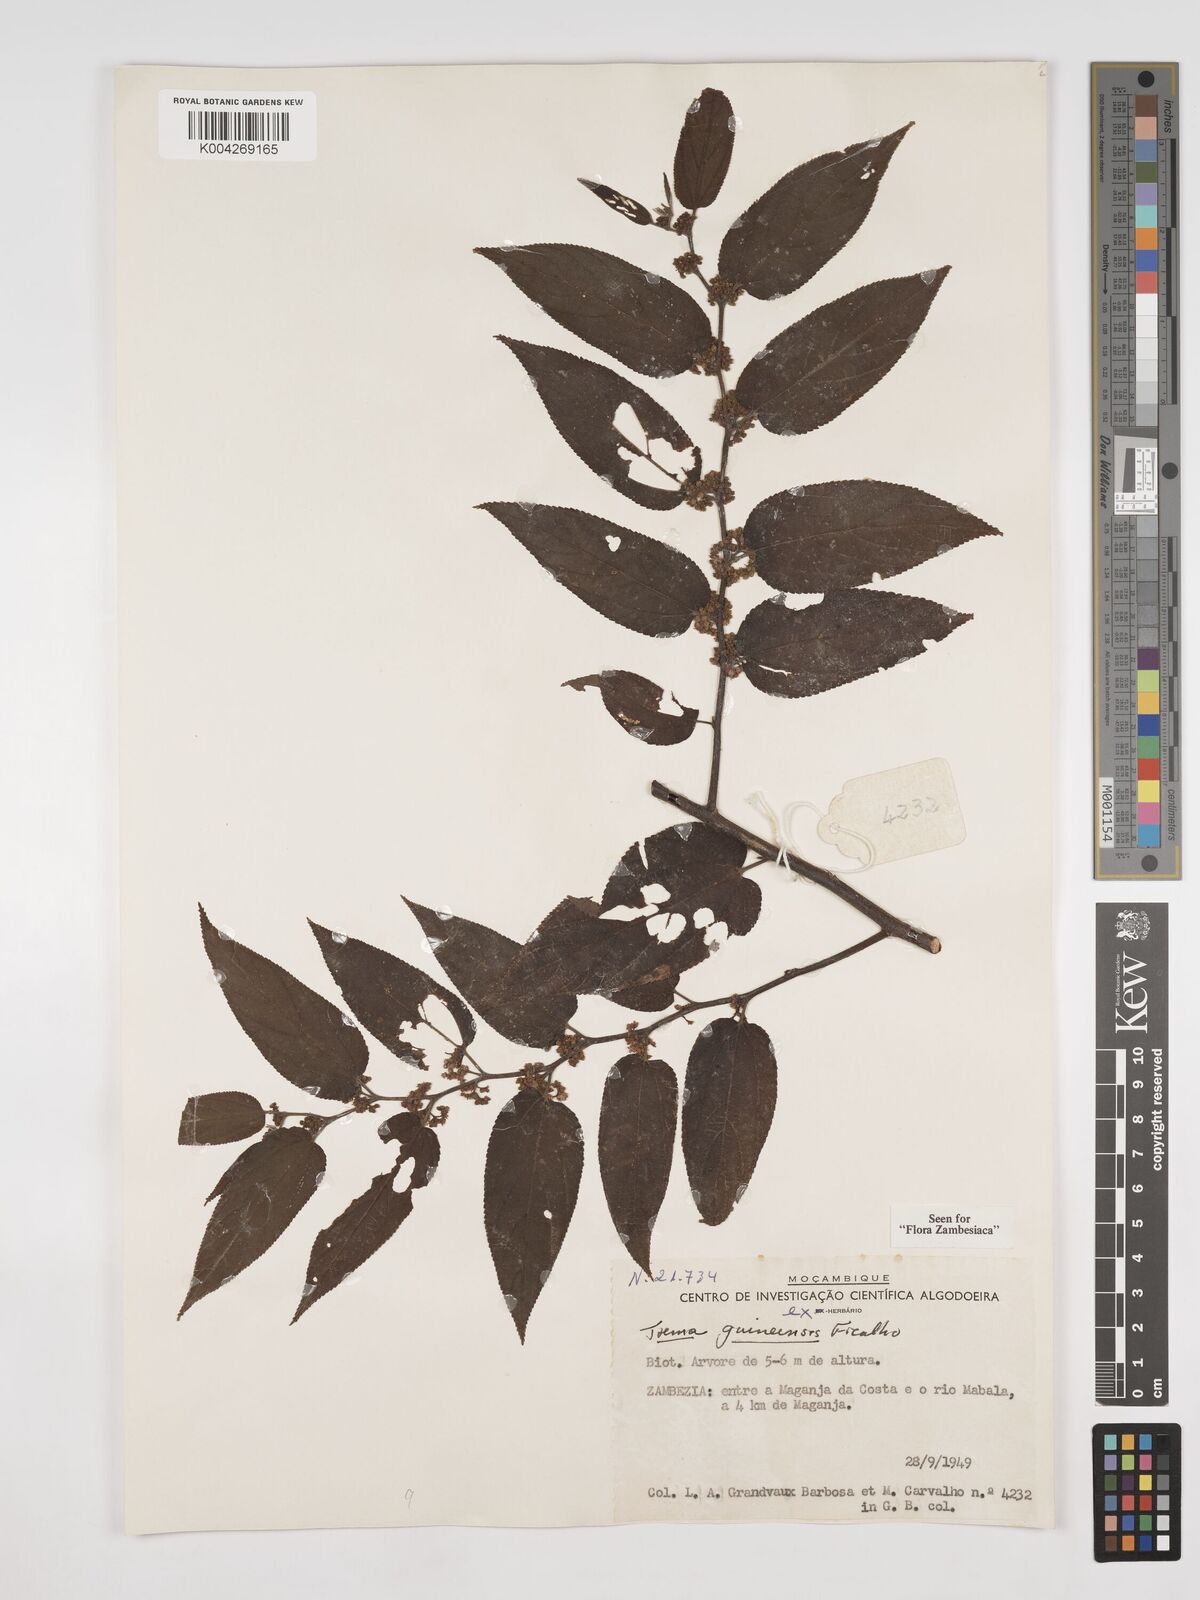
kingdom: Plantae
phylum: Tracheophyta
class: Magnoliopsida
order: Rosales
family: Cannabaceae
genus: Trema
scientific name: Trema orientale
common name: Indian charcoal tree
